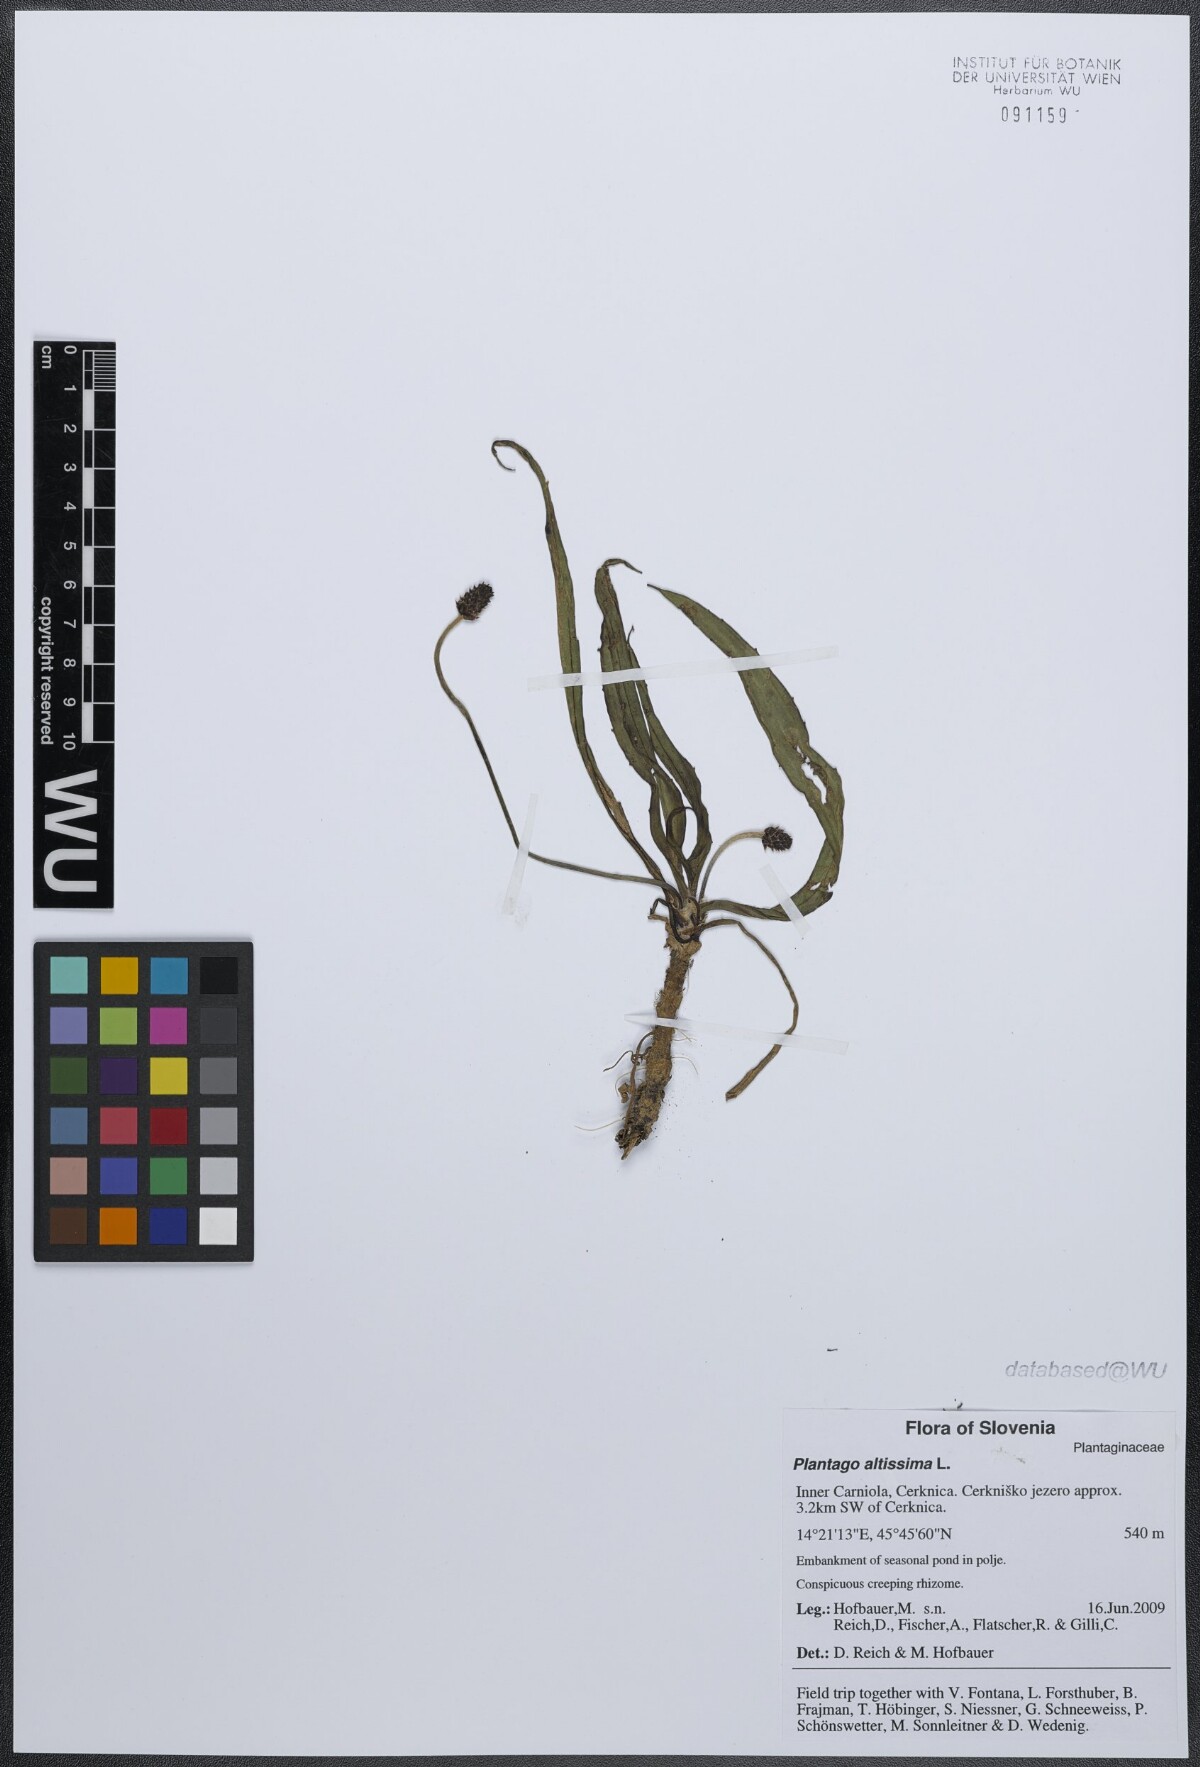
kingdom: Plantae
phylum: Tracheophyta
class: Magnoliopsida
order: Lamiales
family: Plantaginaceae
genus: Plantago
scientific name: Plantago altissima
